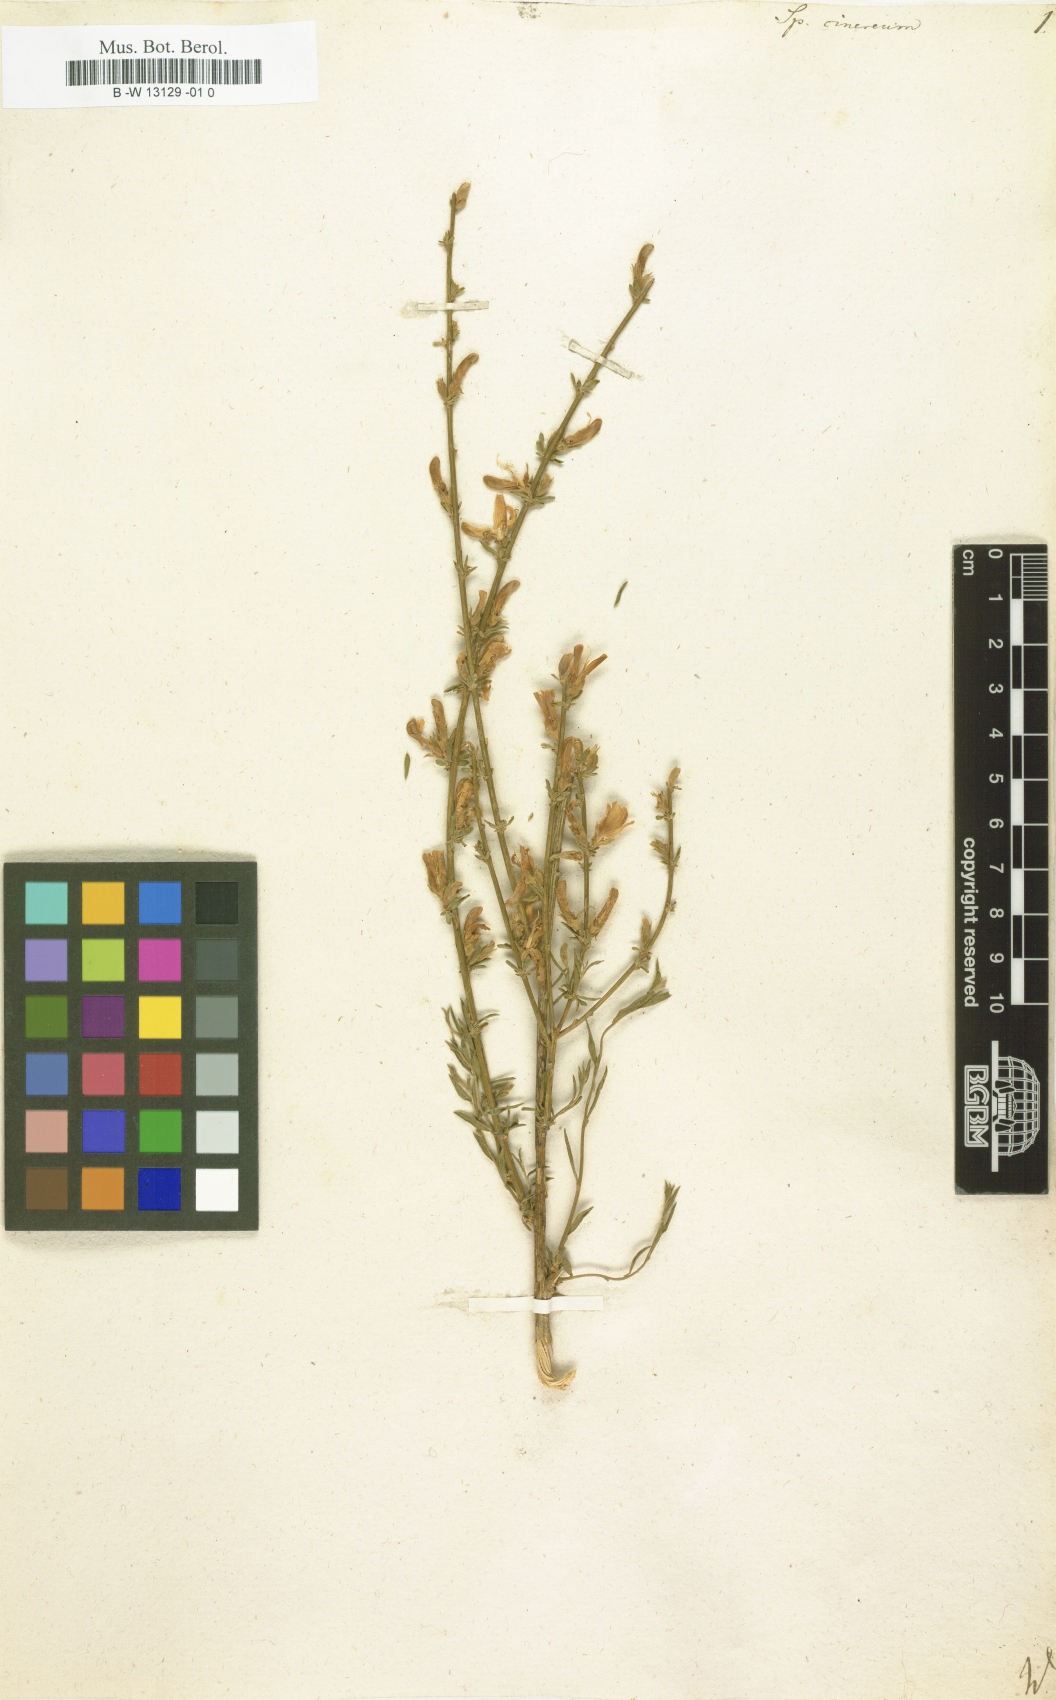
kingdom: Plantae
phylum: Tracheophyta
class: Magnoliopsida
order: Fabales
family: Fabaceae
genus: Genista
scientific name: Genista cinerea
